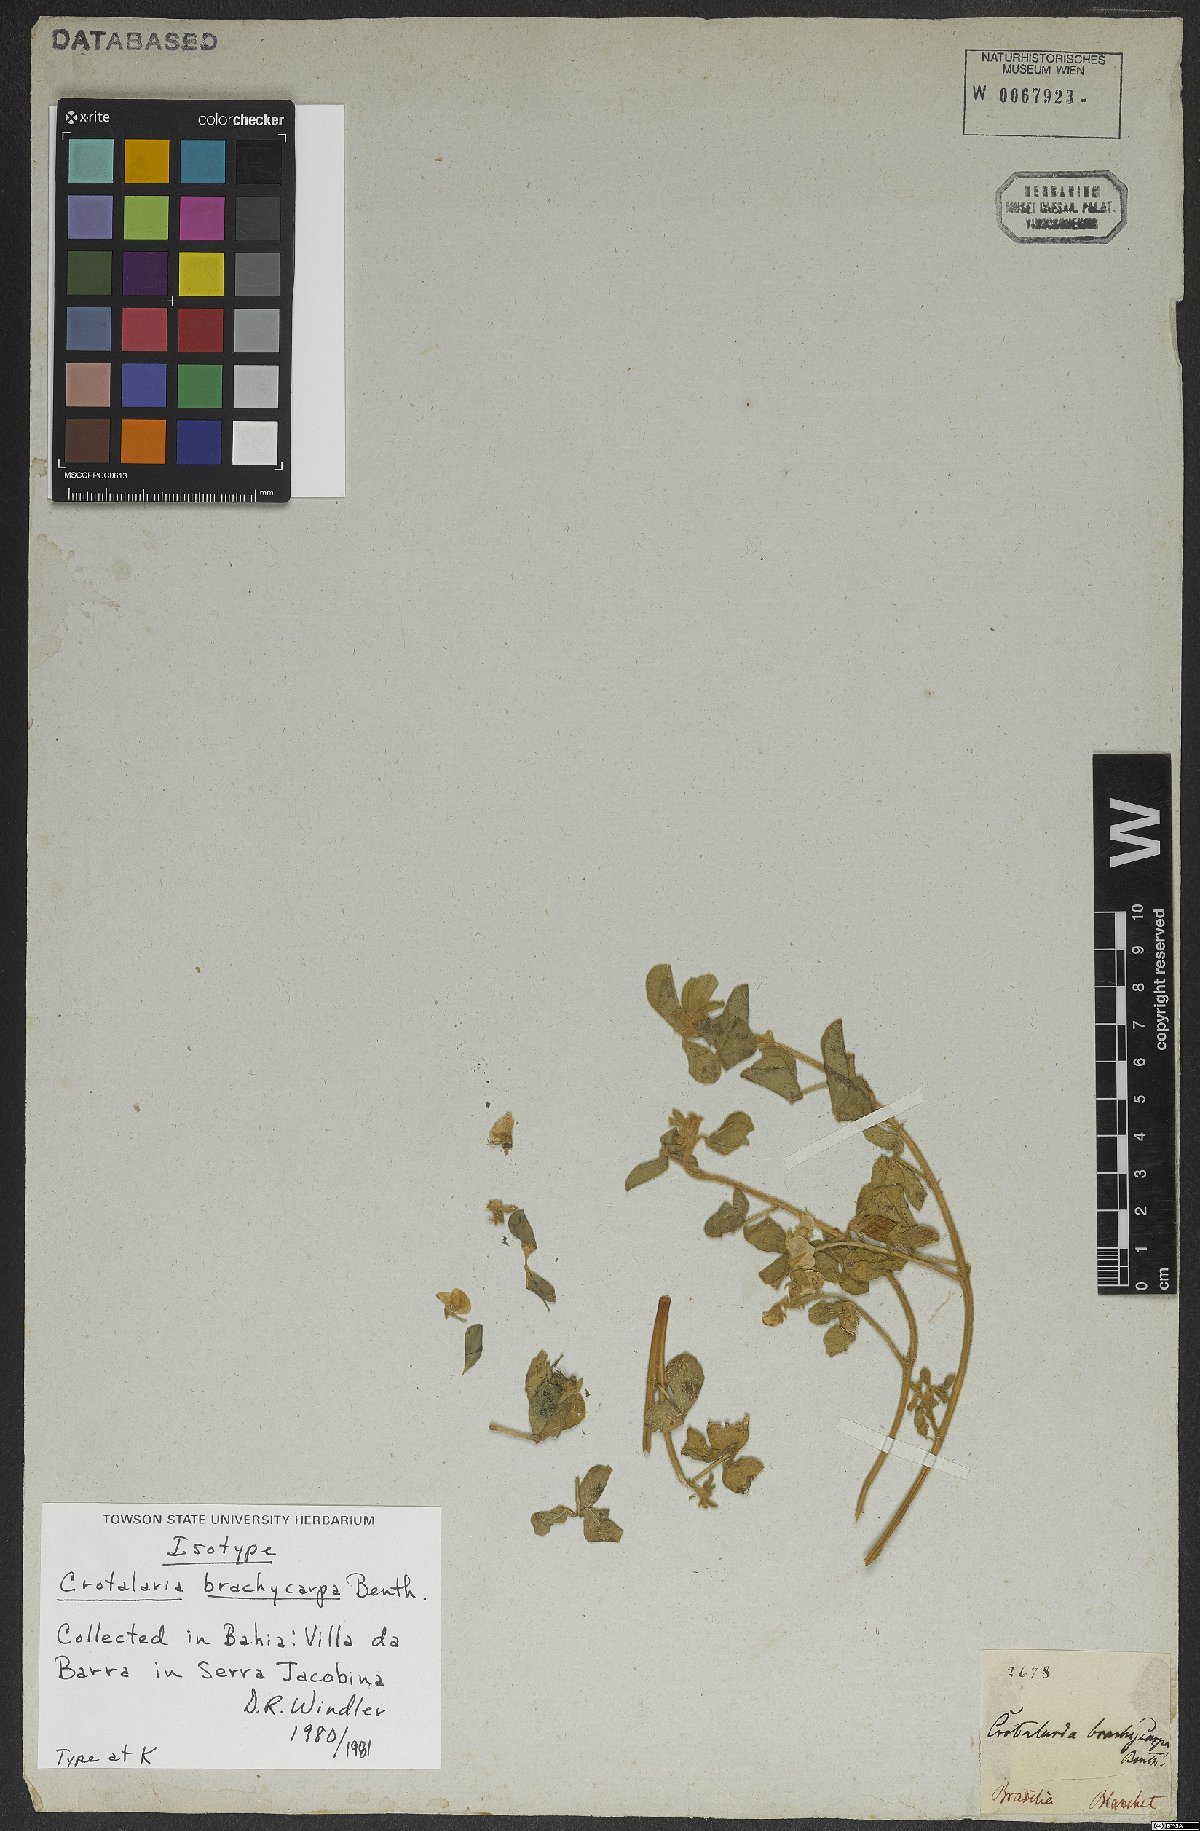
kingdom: Plantae
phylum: Tracheophyta
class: Magnoliopsida
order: Fabales
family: Fabaceae
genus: Crotalaria
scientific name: Crotalaria brachycarpa
